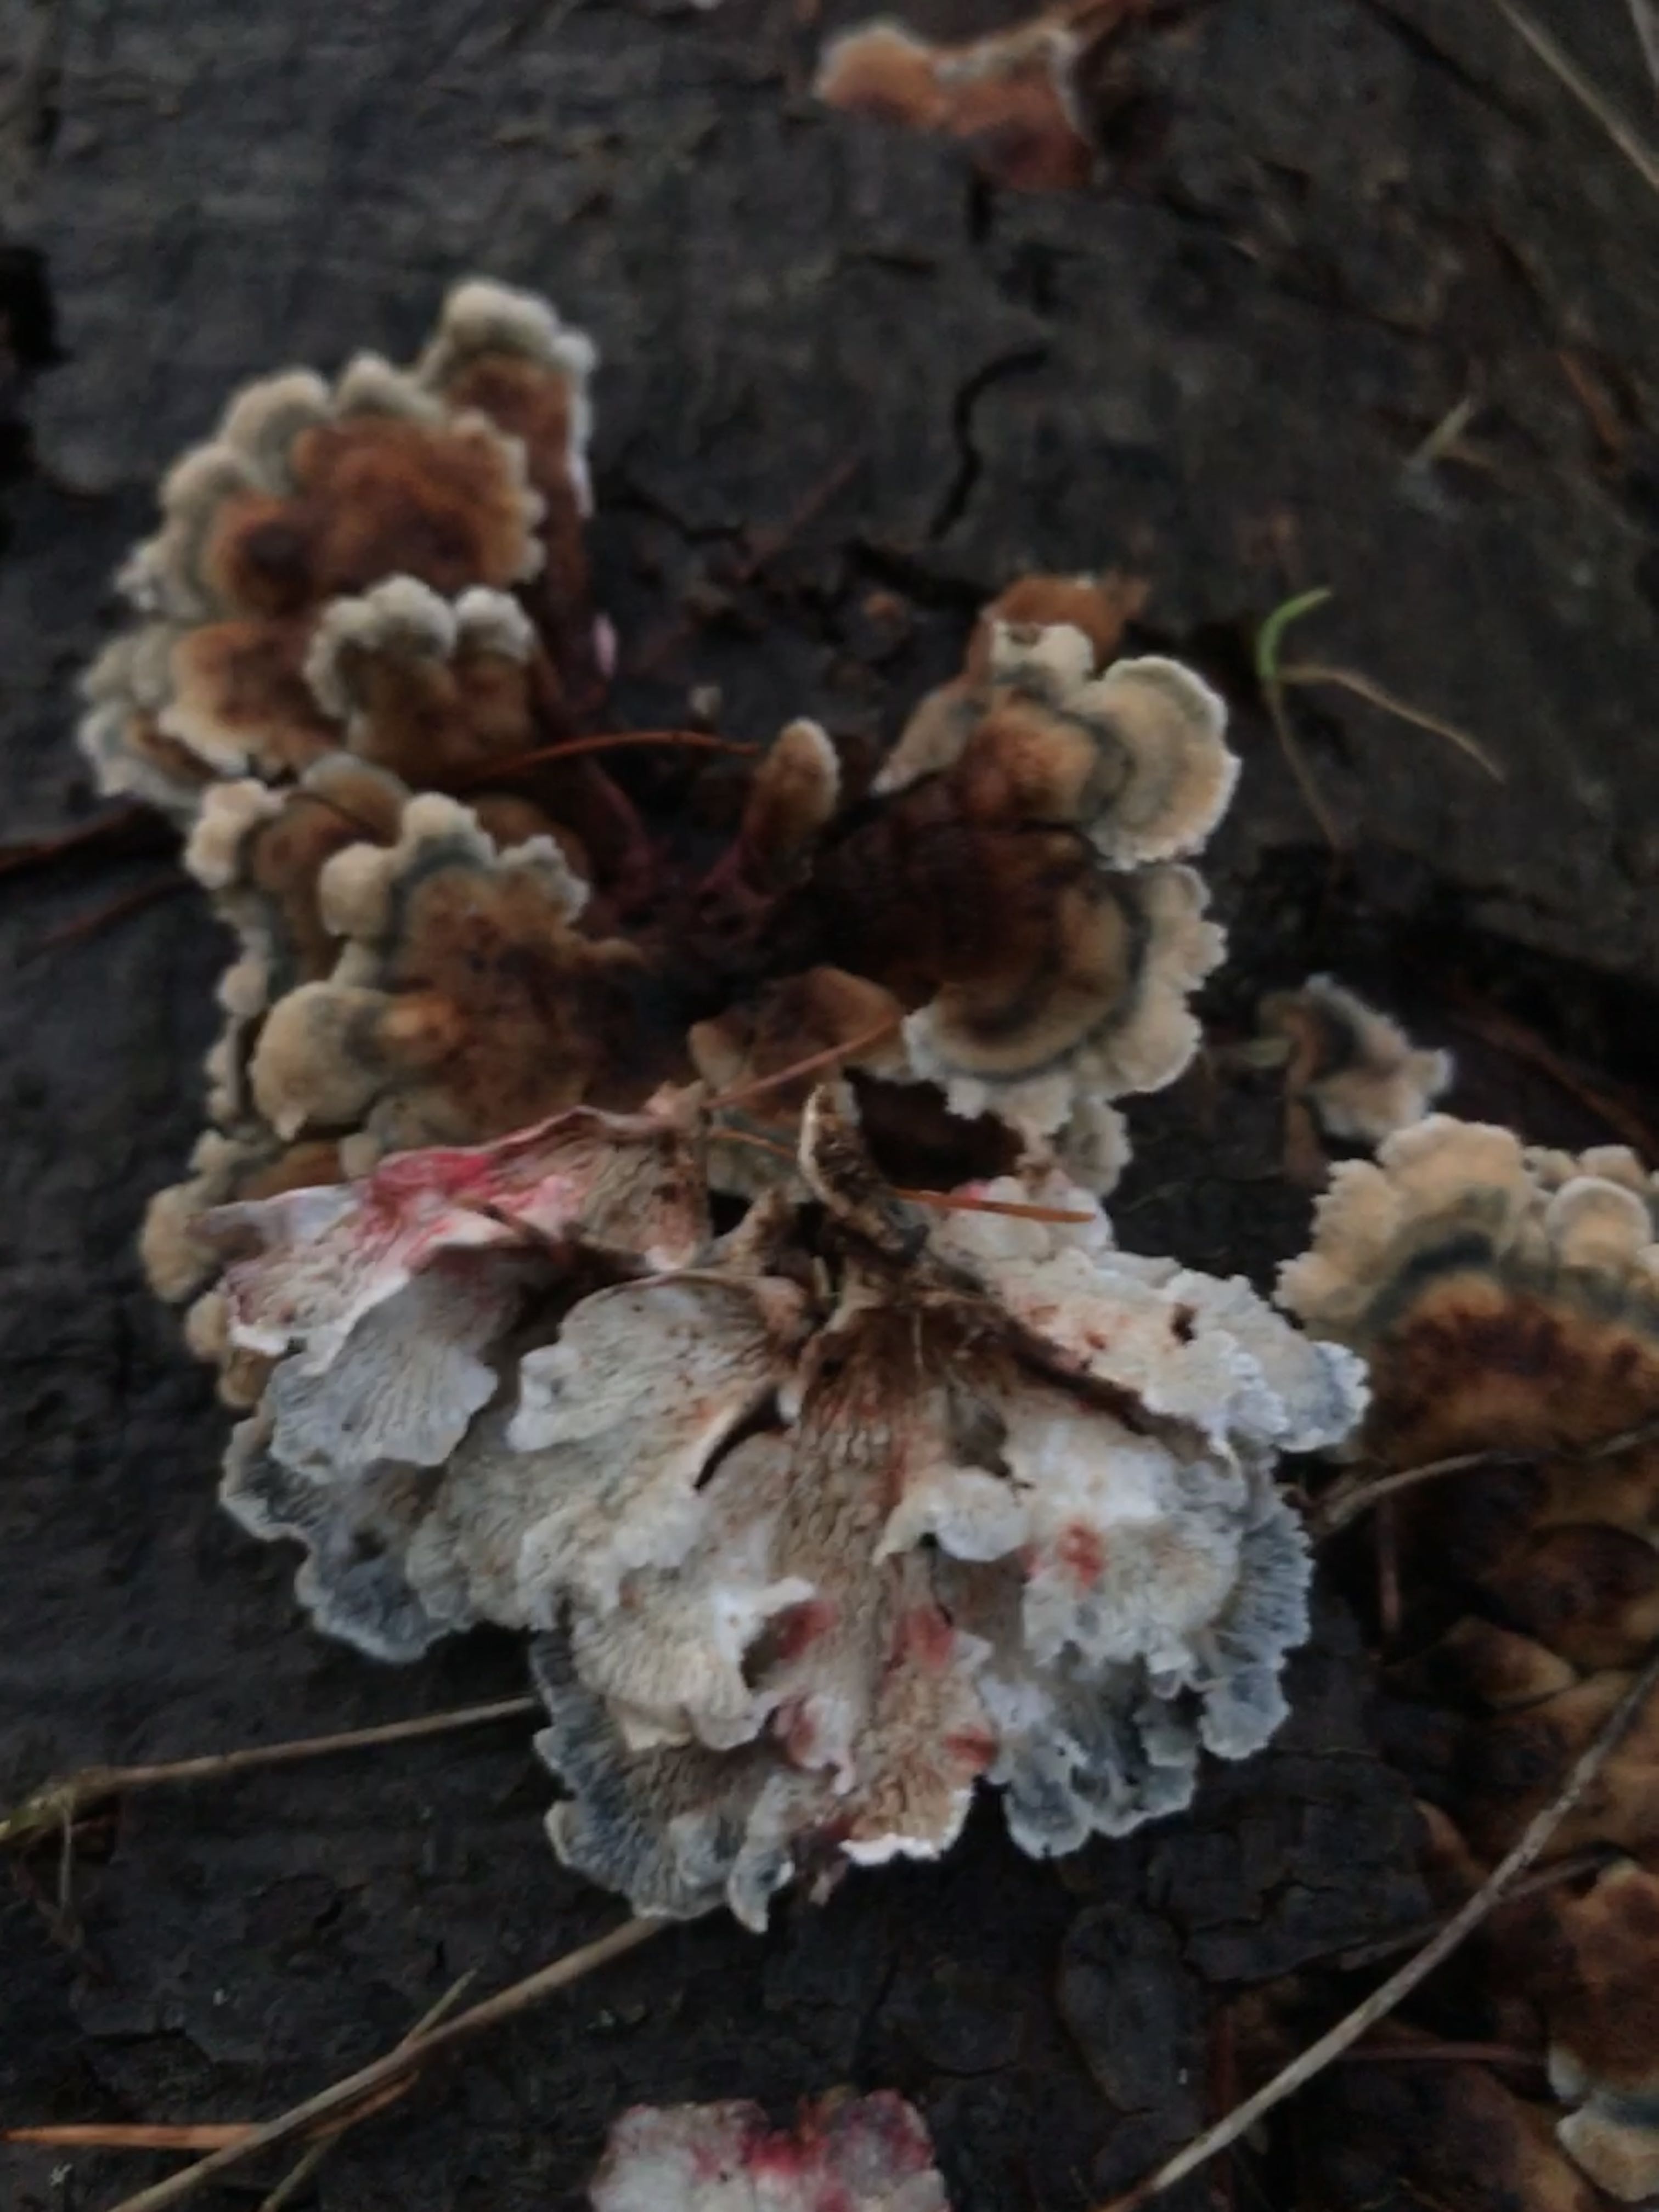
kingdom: Fungi
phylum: Basidiomycota
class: Agaricomycetes
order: Amylocorticiales
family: Amylocorticiaceae
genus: Plicaturopsis
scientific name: Plicaturopsis crispa
